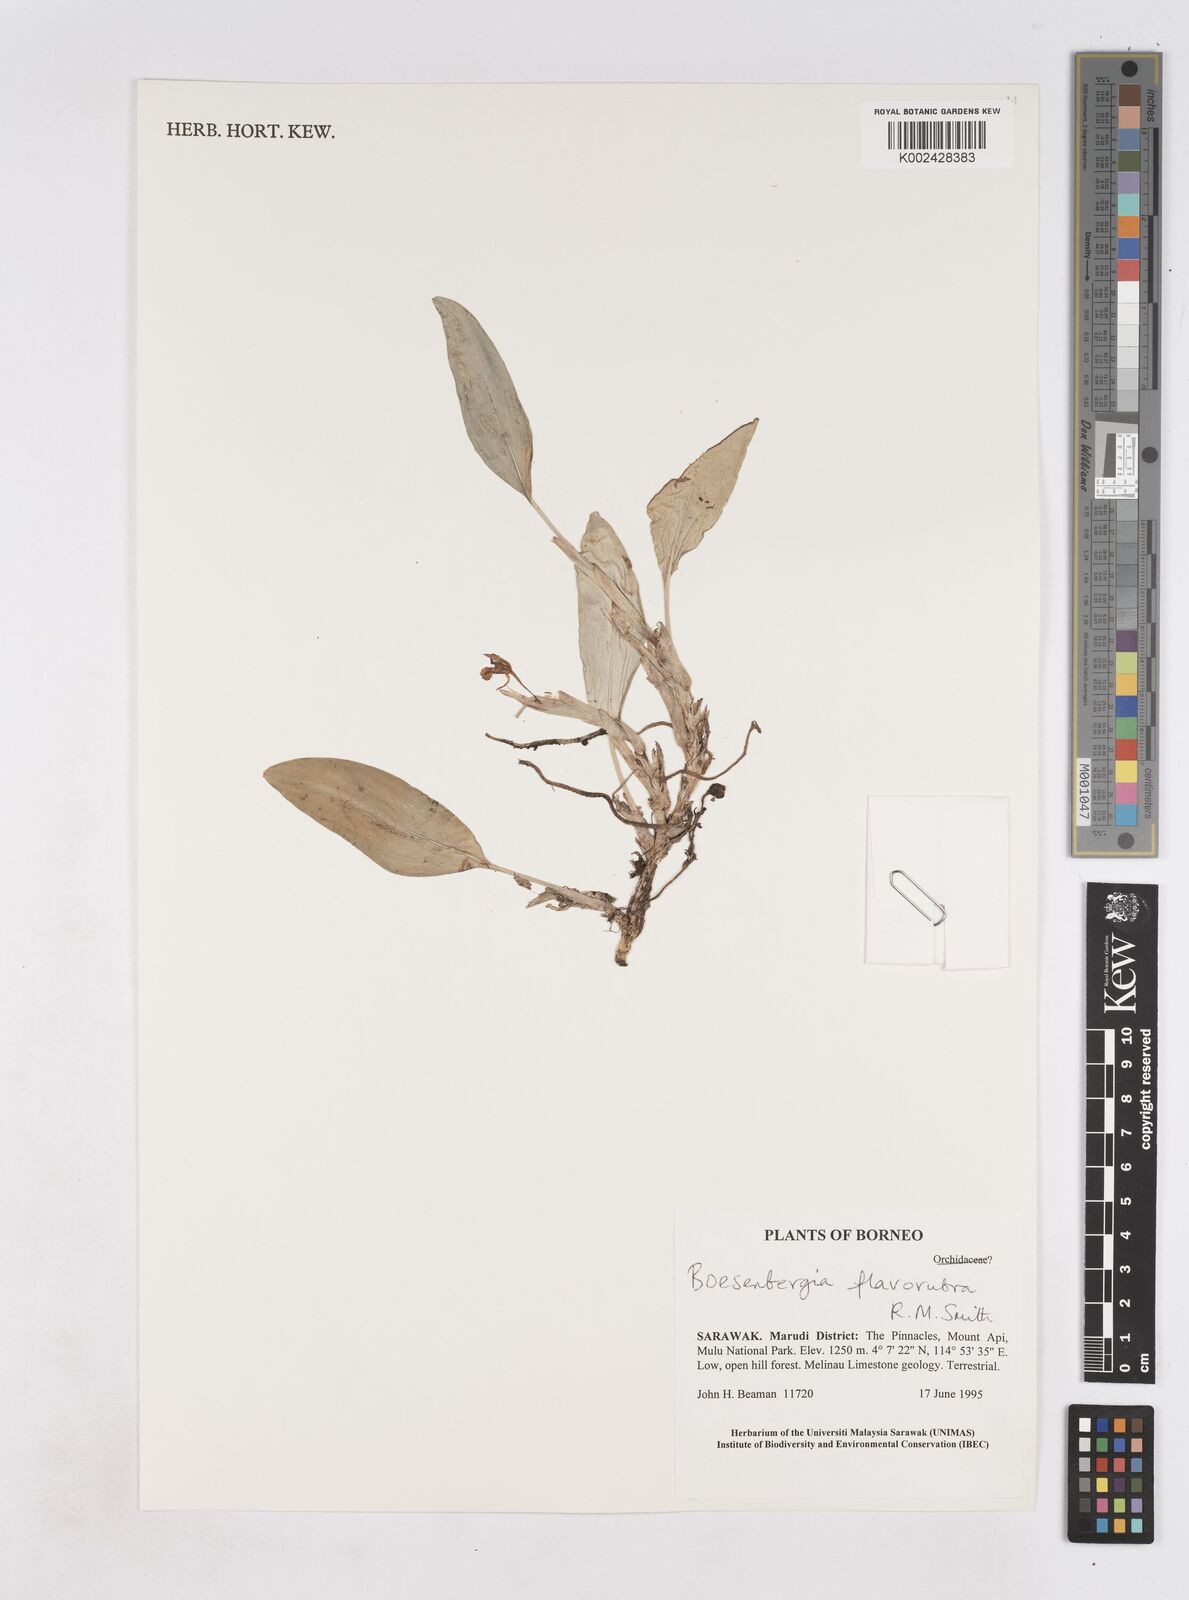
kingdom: Plantae
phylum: Tracheophyta
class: Liliopsida
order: Zingiberales
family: Zingiberaceae
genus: Boesenbergia
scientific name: Boesenbergia flavorubra
